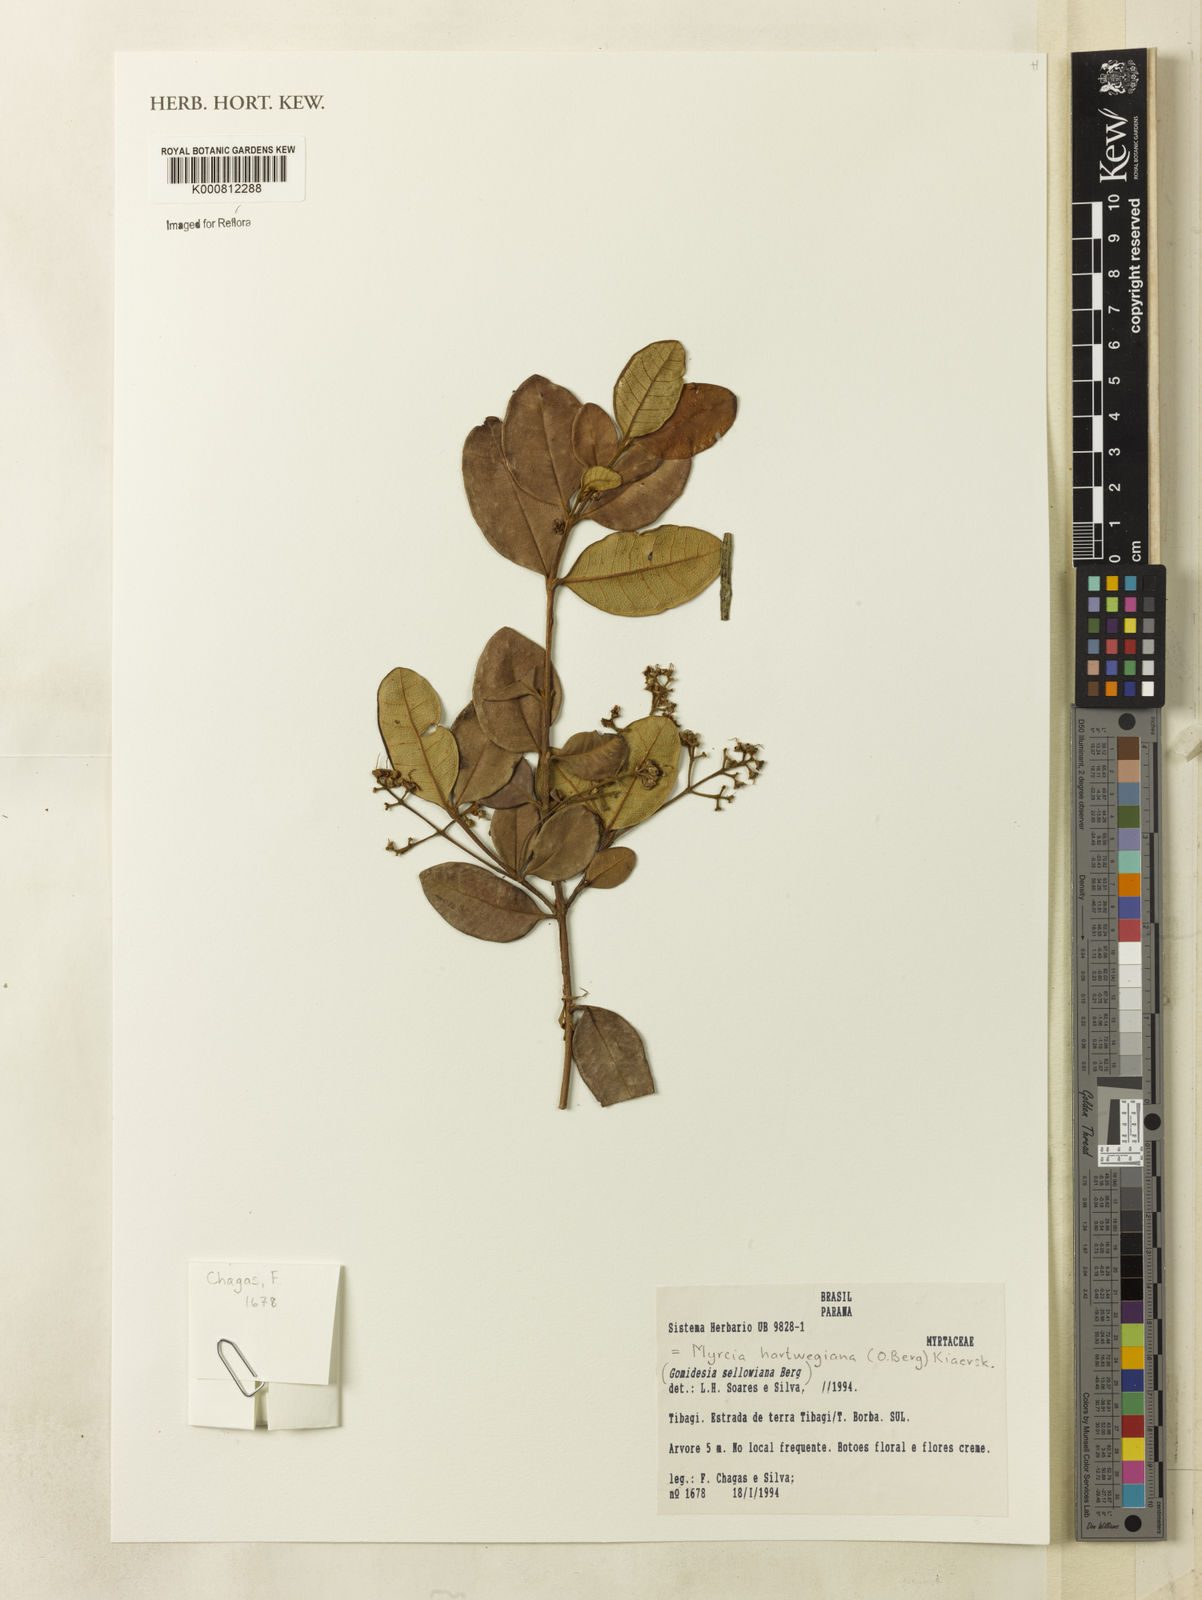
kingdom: Plantae
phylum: Tracheophyta
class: Magnoliopsida
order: Myrtales
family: Myrtaceae
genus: Myrcia
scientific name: Myrcia hartwegiana
